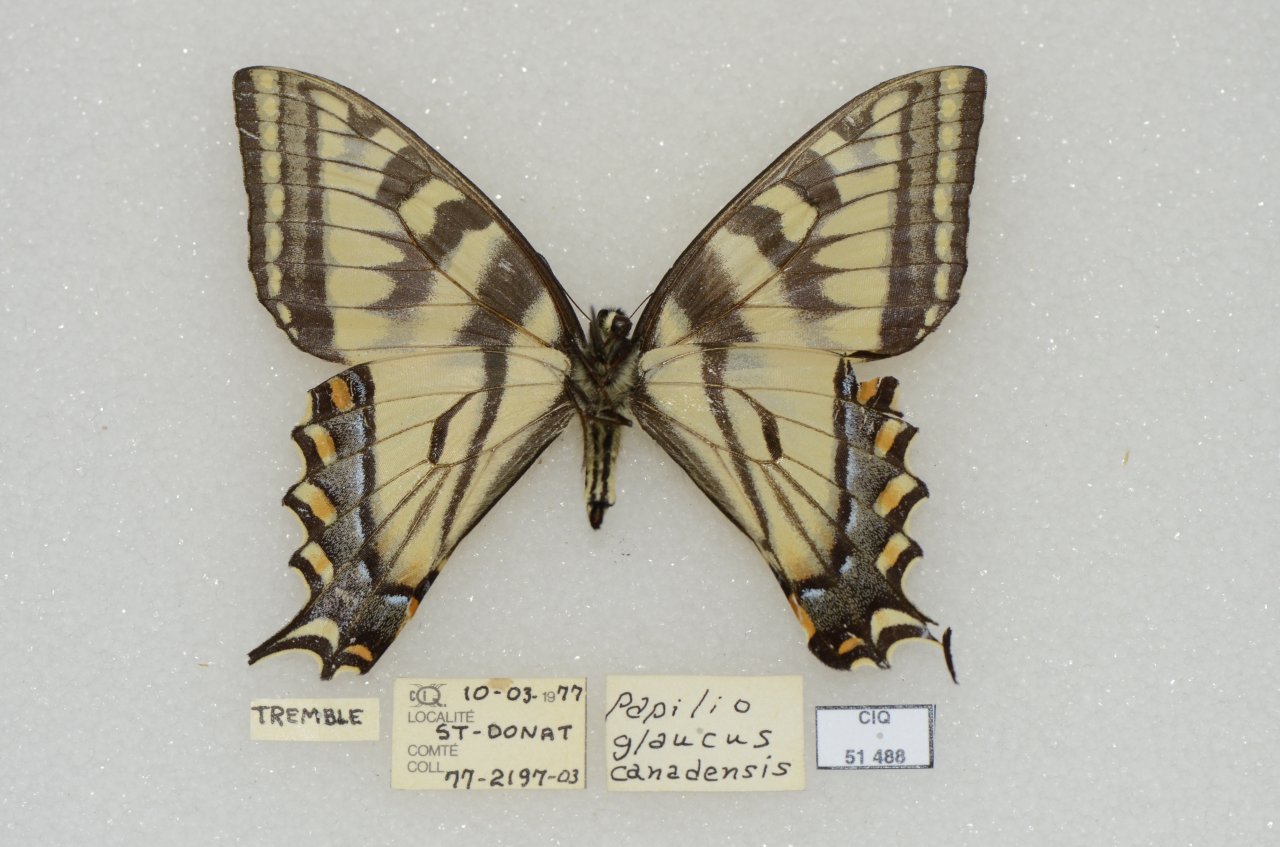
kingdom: Animalia
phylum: Arthropoda
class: Insecta
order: Lepidoptera
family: Papilionidae
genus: Pterourus
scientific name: Pterourus canadensis
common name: Canadian Tiger Swallowtail
